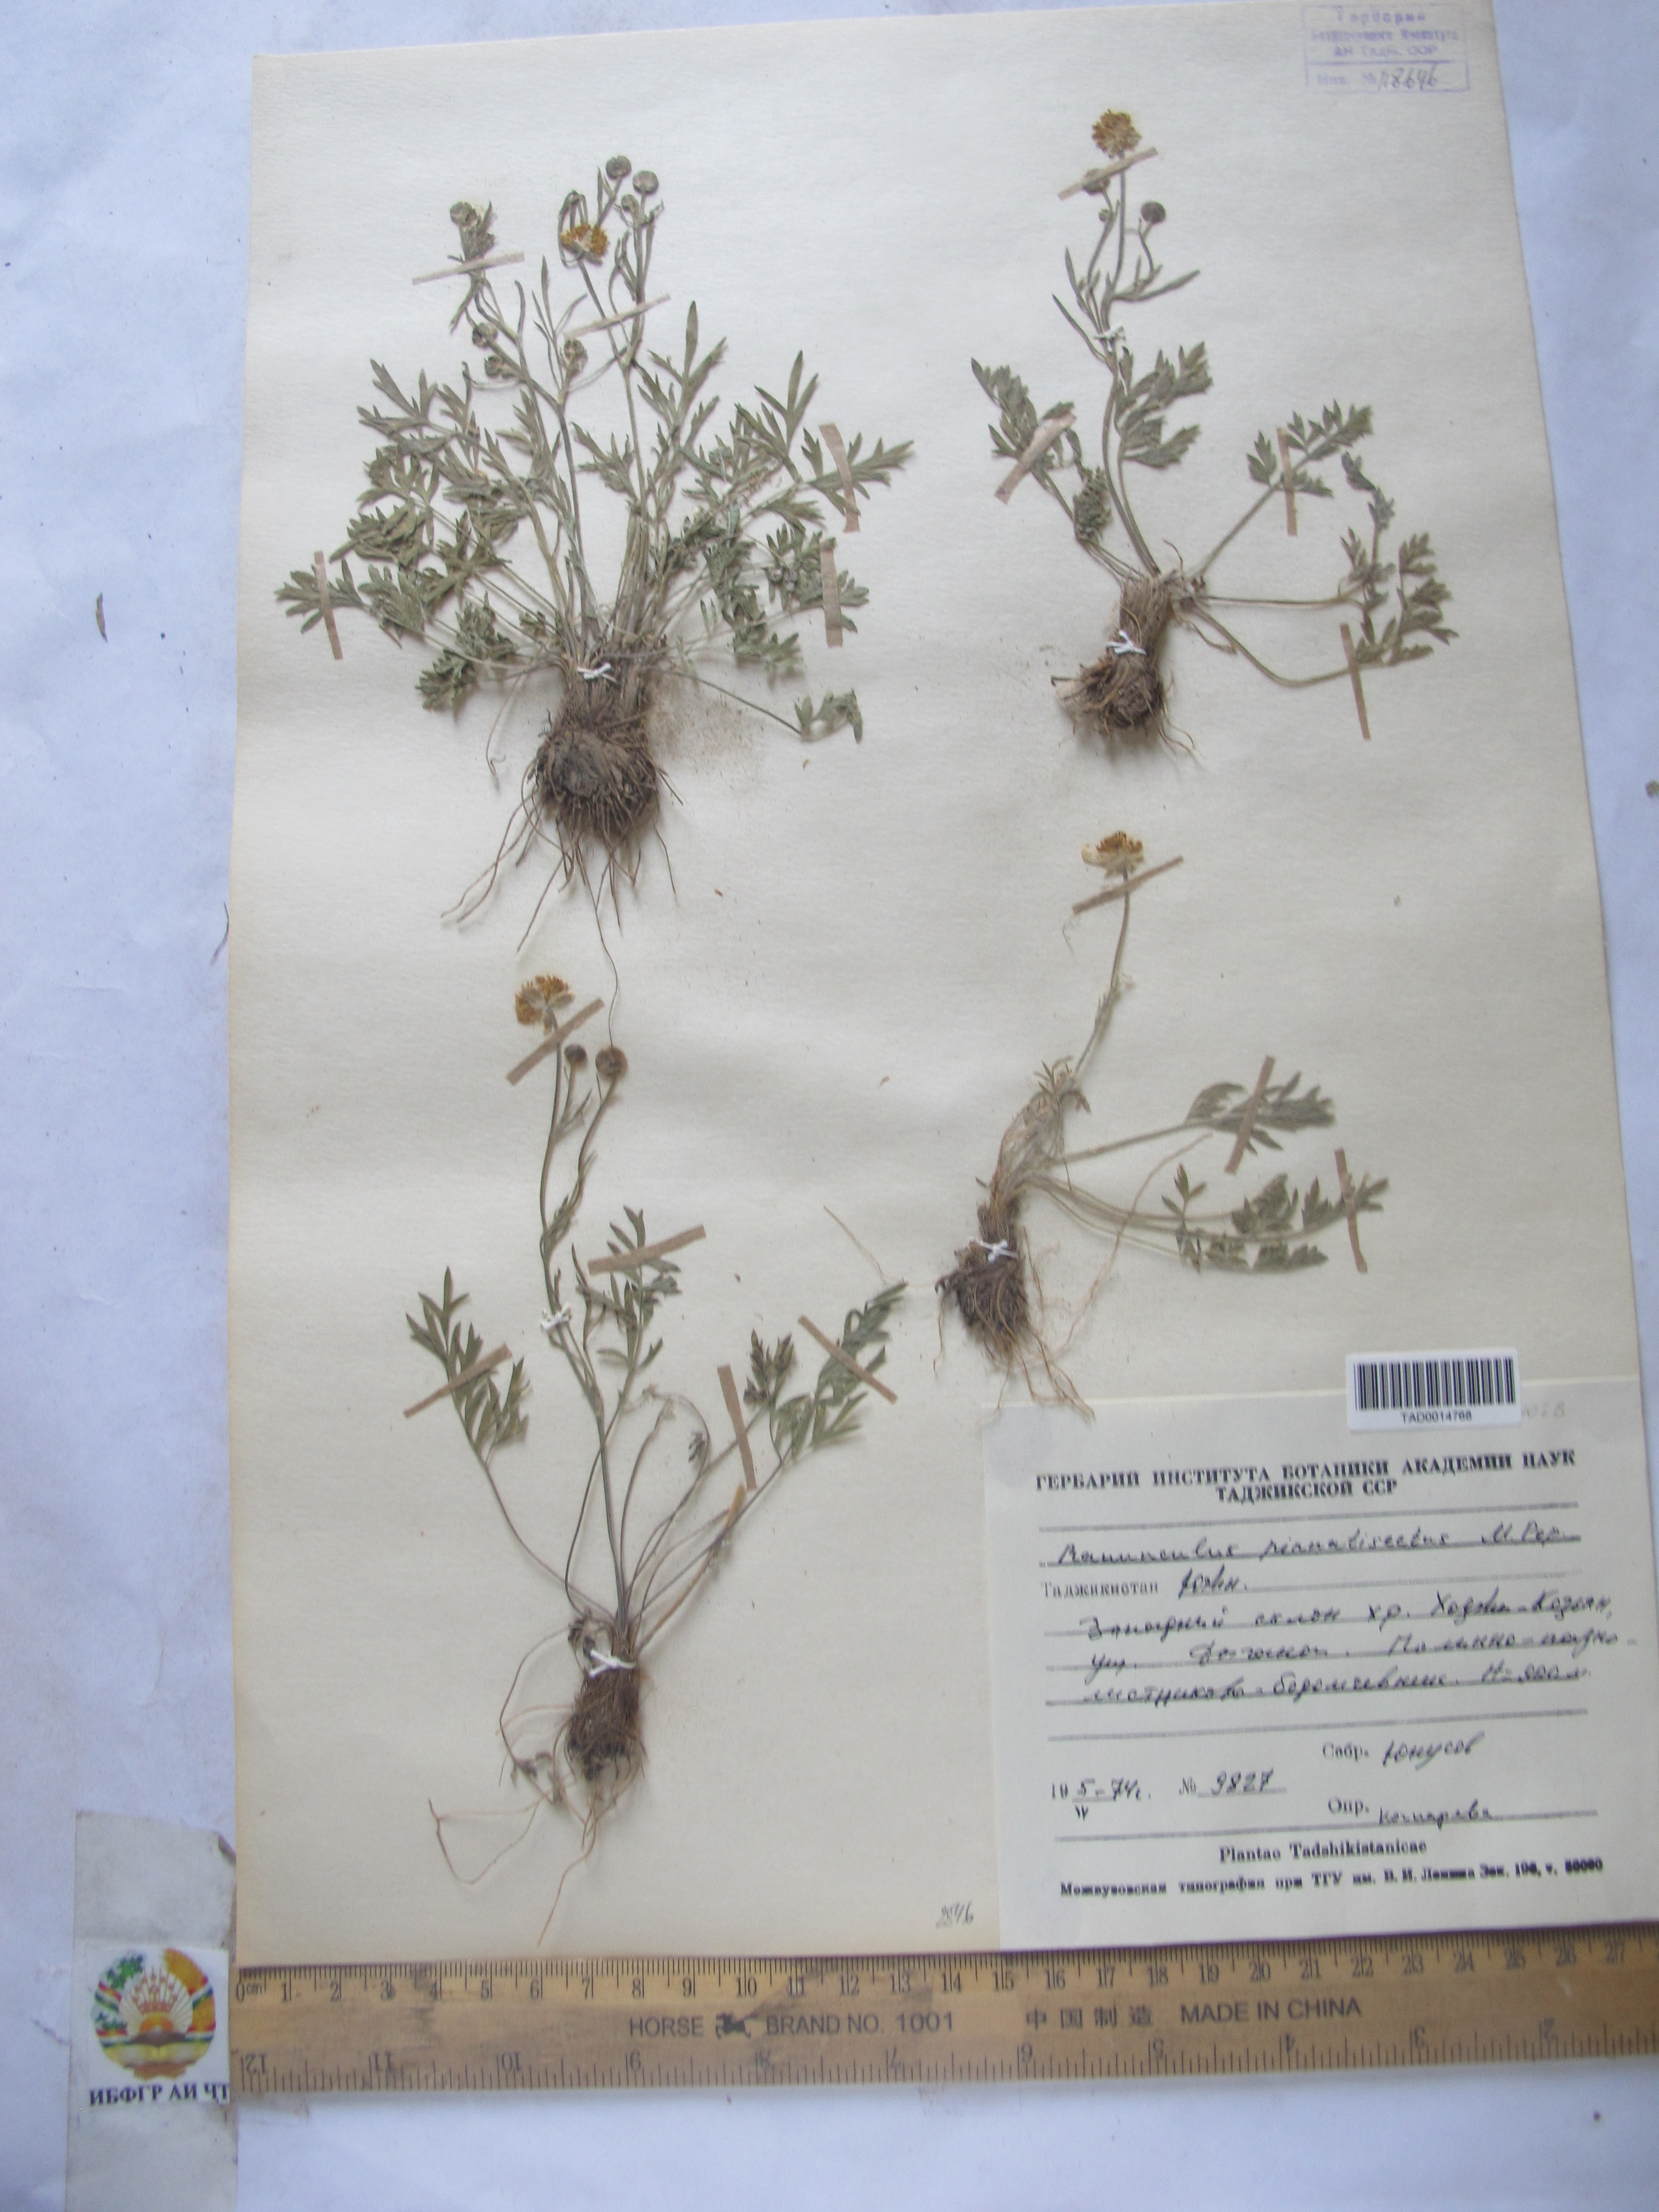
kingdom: Plantae
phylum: Tracheophyta
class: Magnoliopsida
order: Ranunculales
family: Ranunculaceae
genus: Ranunculus
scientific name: Ranunculus pinnatisectus
